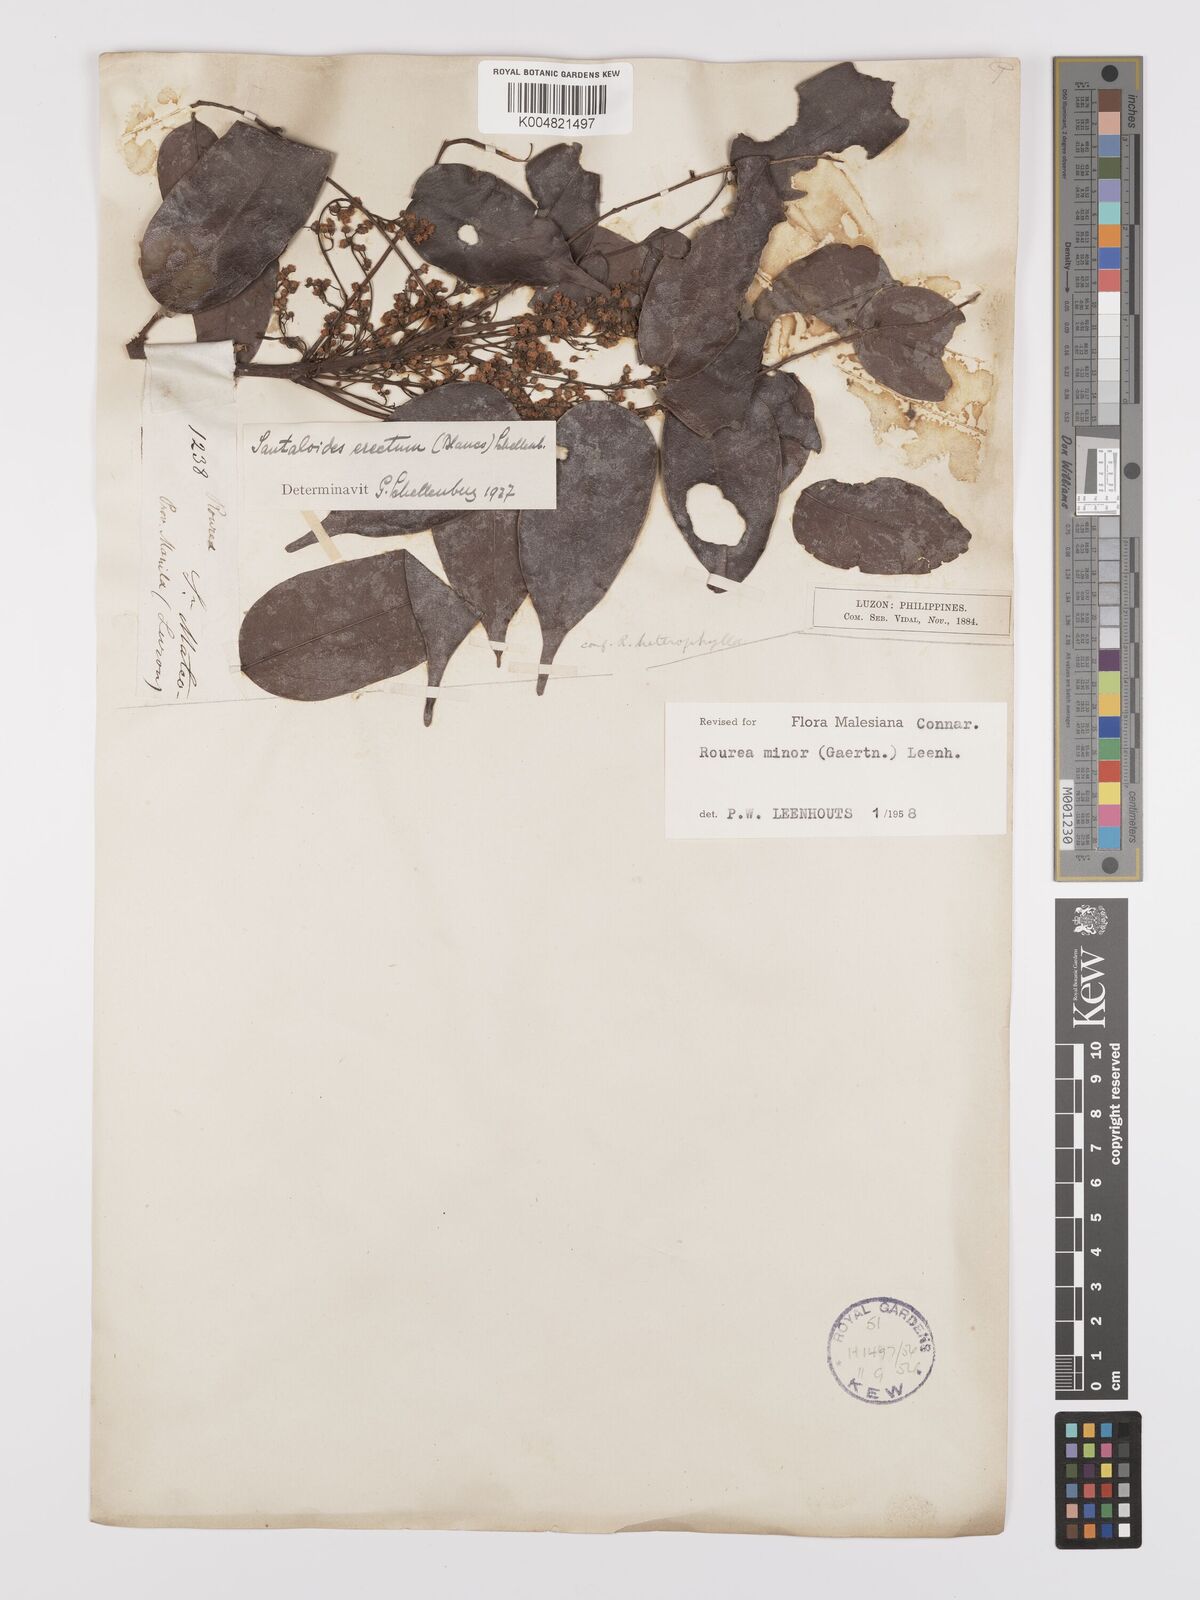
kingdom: Plantae
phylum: Tracheophyta
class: Magnoliopsida
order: Oxalidales
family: Connaraceae
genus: Rourea
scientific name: Rourea minor
